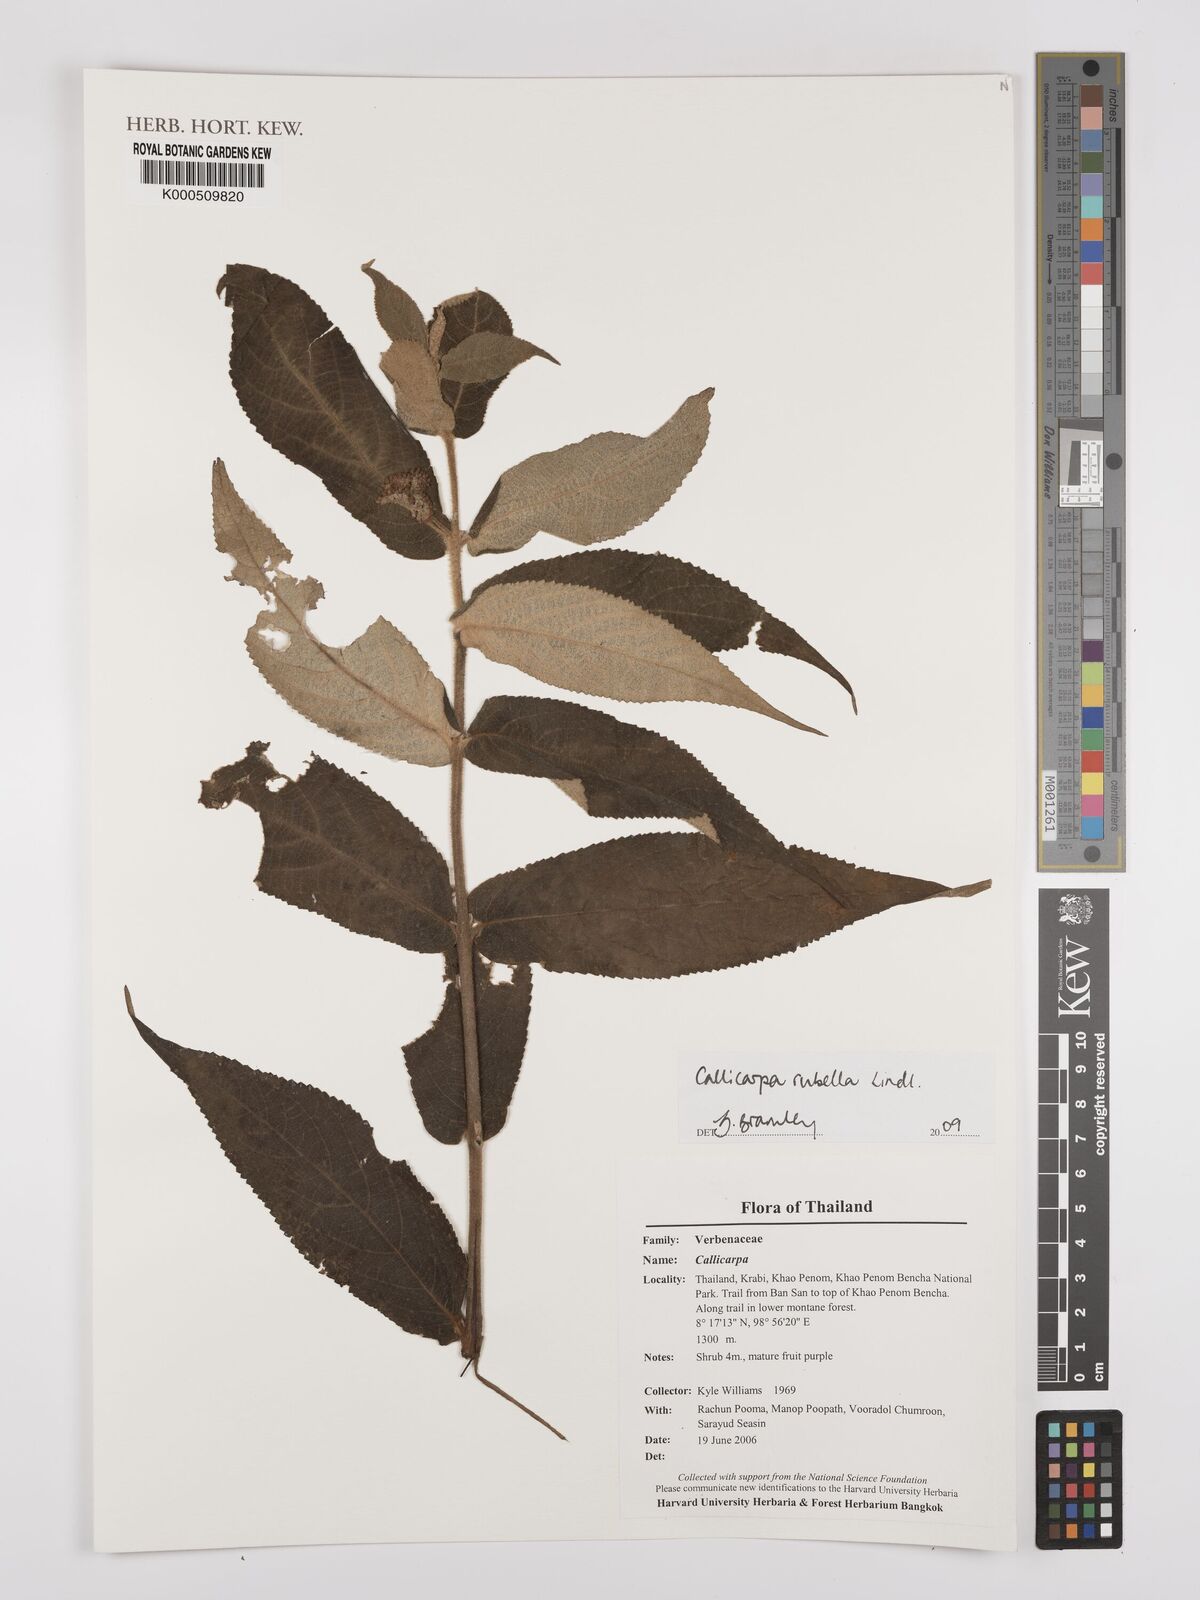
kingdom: Plantae
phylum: Tracheophyta
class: Magnoliopsida
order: Lamiales
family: Lamiaceae
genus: Callicarpa
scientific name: Callicarpa rubella
